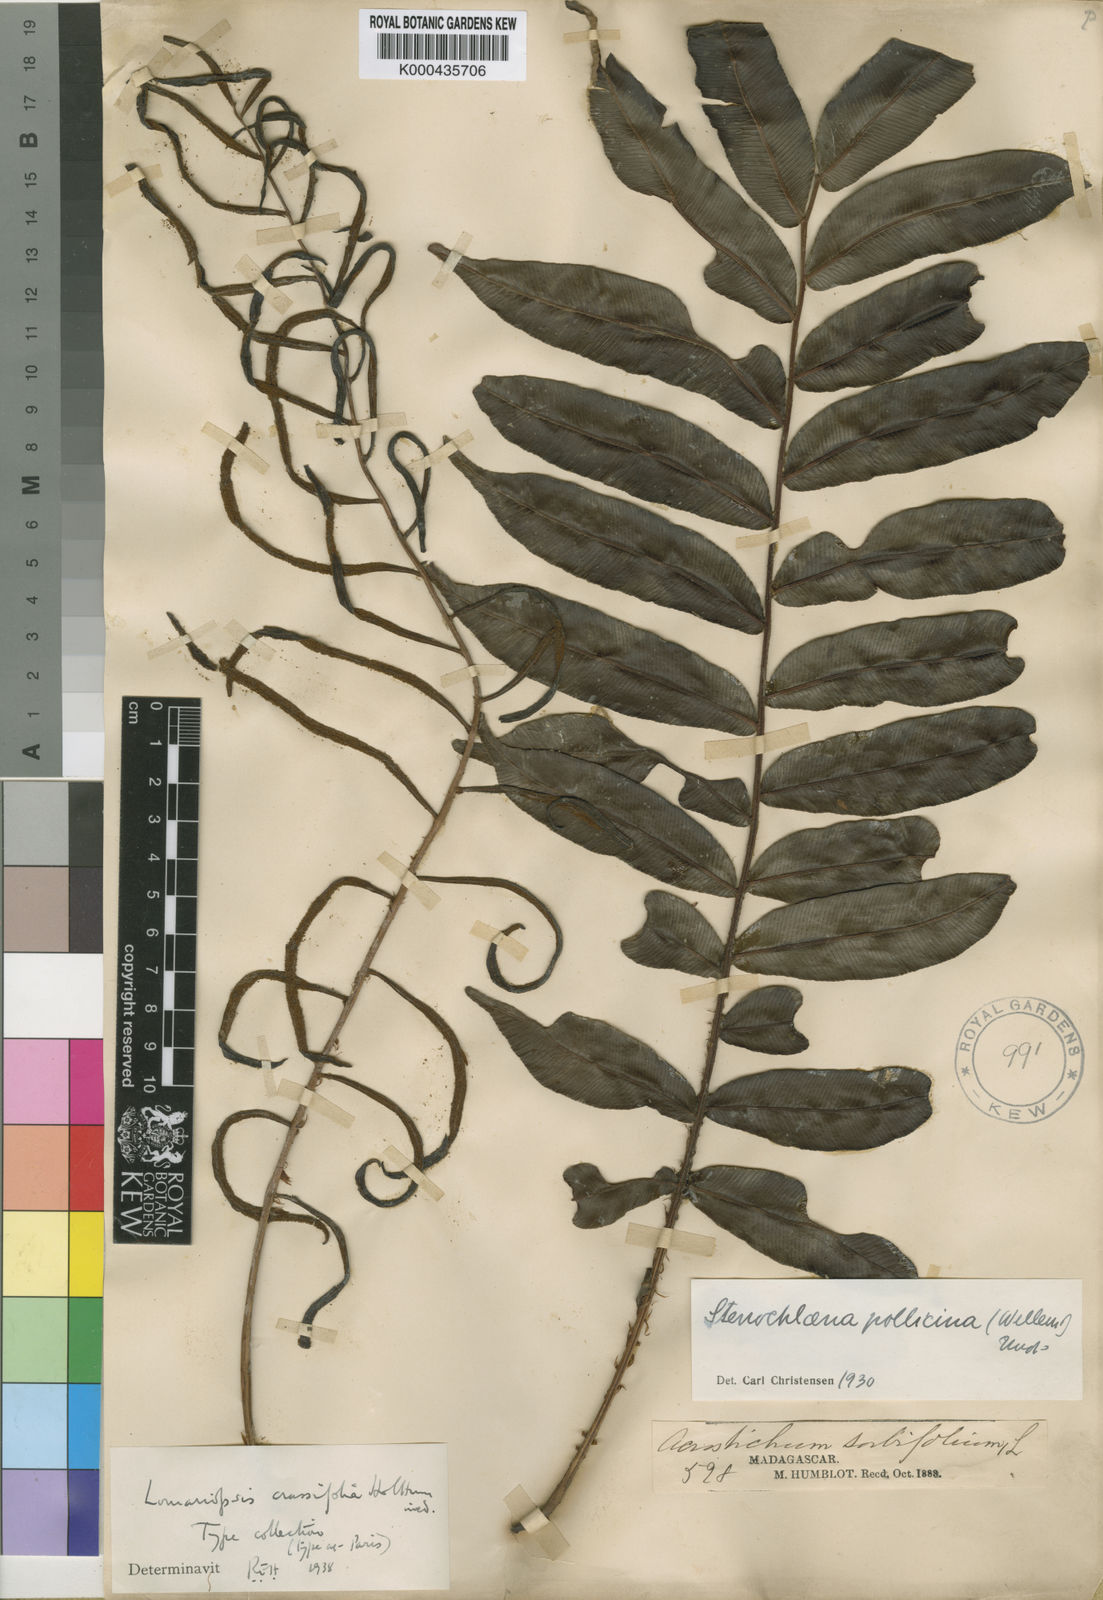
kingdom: Plantae
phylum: Tracheophyta
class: Polypodiopsida
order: Polypodiales
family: Lomariopsidaceae
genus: Lomariopsis
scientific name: Lomariopsis crassifolia
